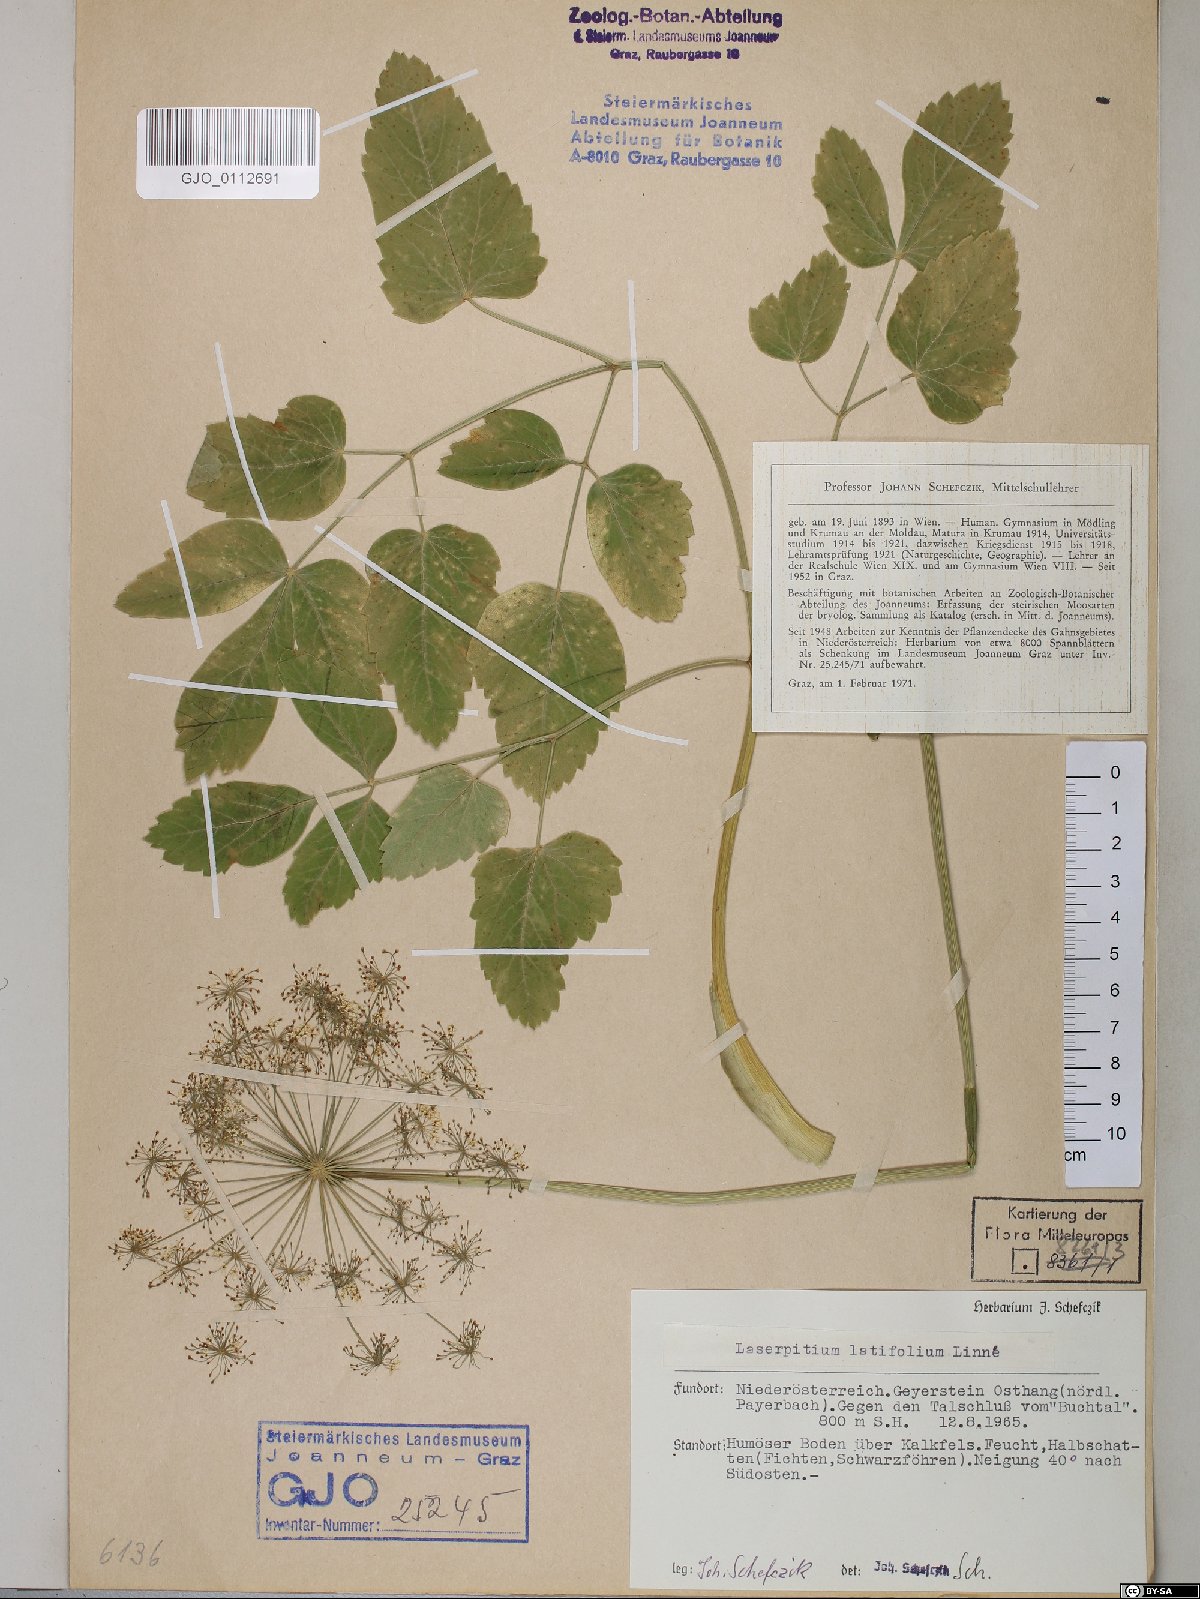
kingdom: Plantae
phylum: Tracheophyta
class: Magnoliopsida
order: Apiales
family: Apiaceae
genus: Laserpitium
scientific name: Laserpitium latifolium
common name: Broadleaf sermountain
